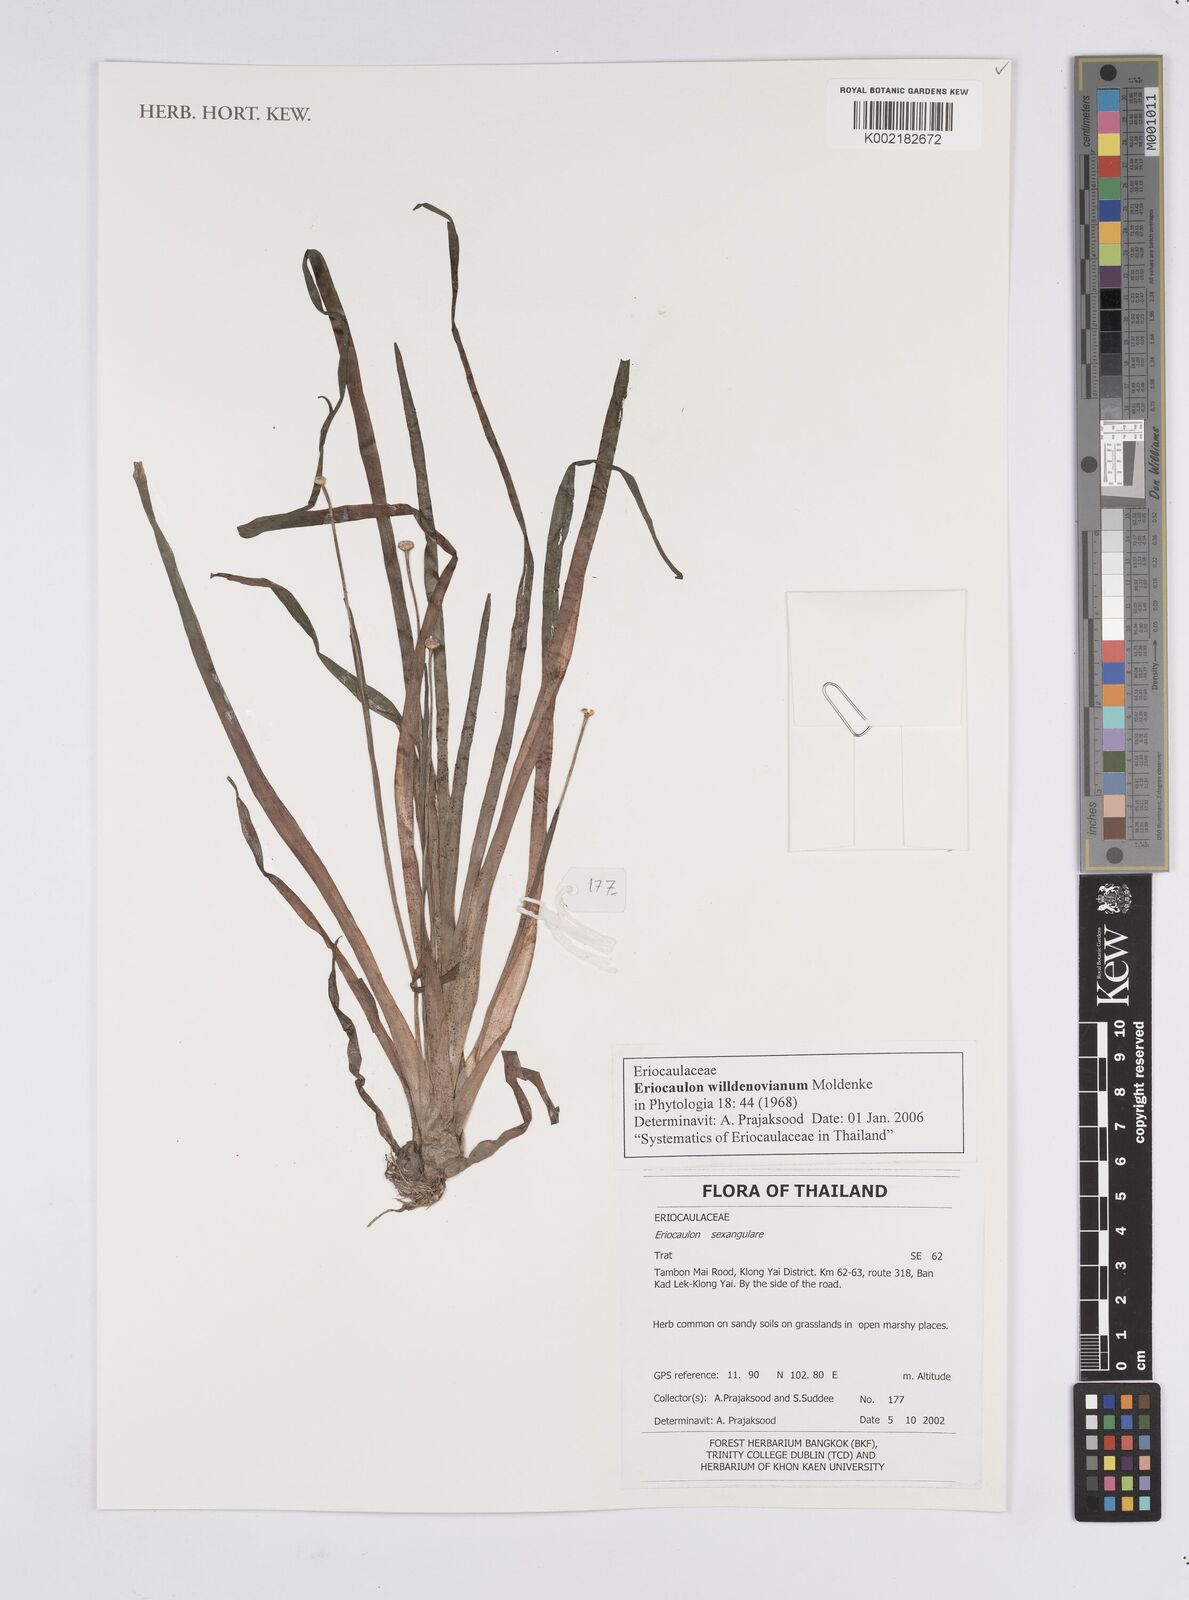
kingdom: Plantae
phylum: Tracheophyta
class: Liliopsida
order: Poales
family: Eriocaulaceae
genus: Eriocaulon
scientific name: Eriocaulon willdenovianum
